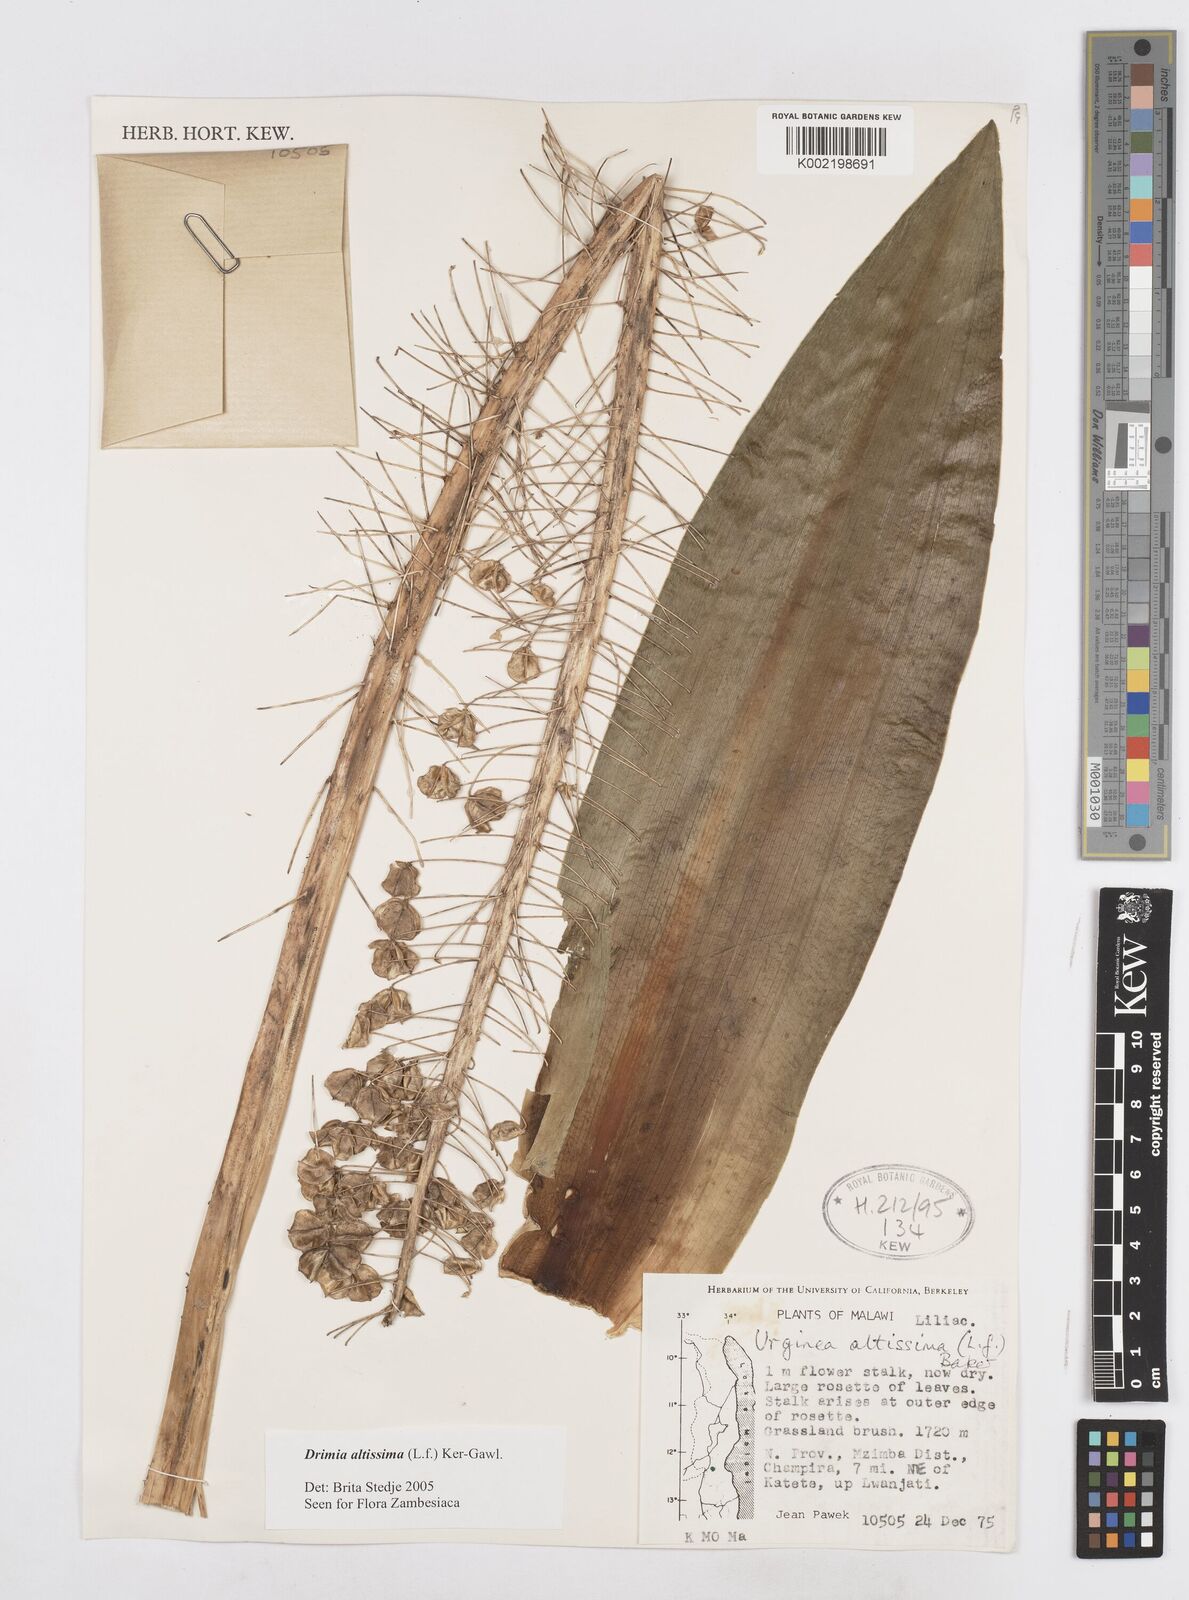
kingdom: Plantae
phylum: Tracheophyta
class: Liliopsida
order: Asparagales
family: Asparagaceae
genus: Drimia
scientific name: Drimia
